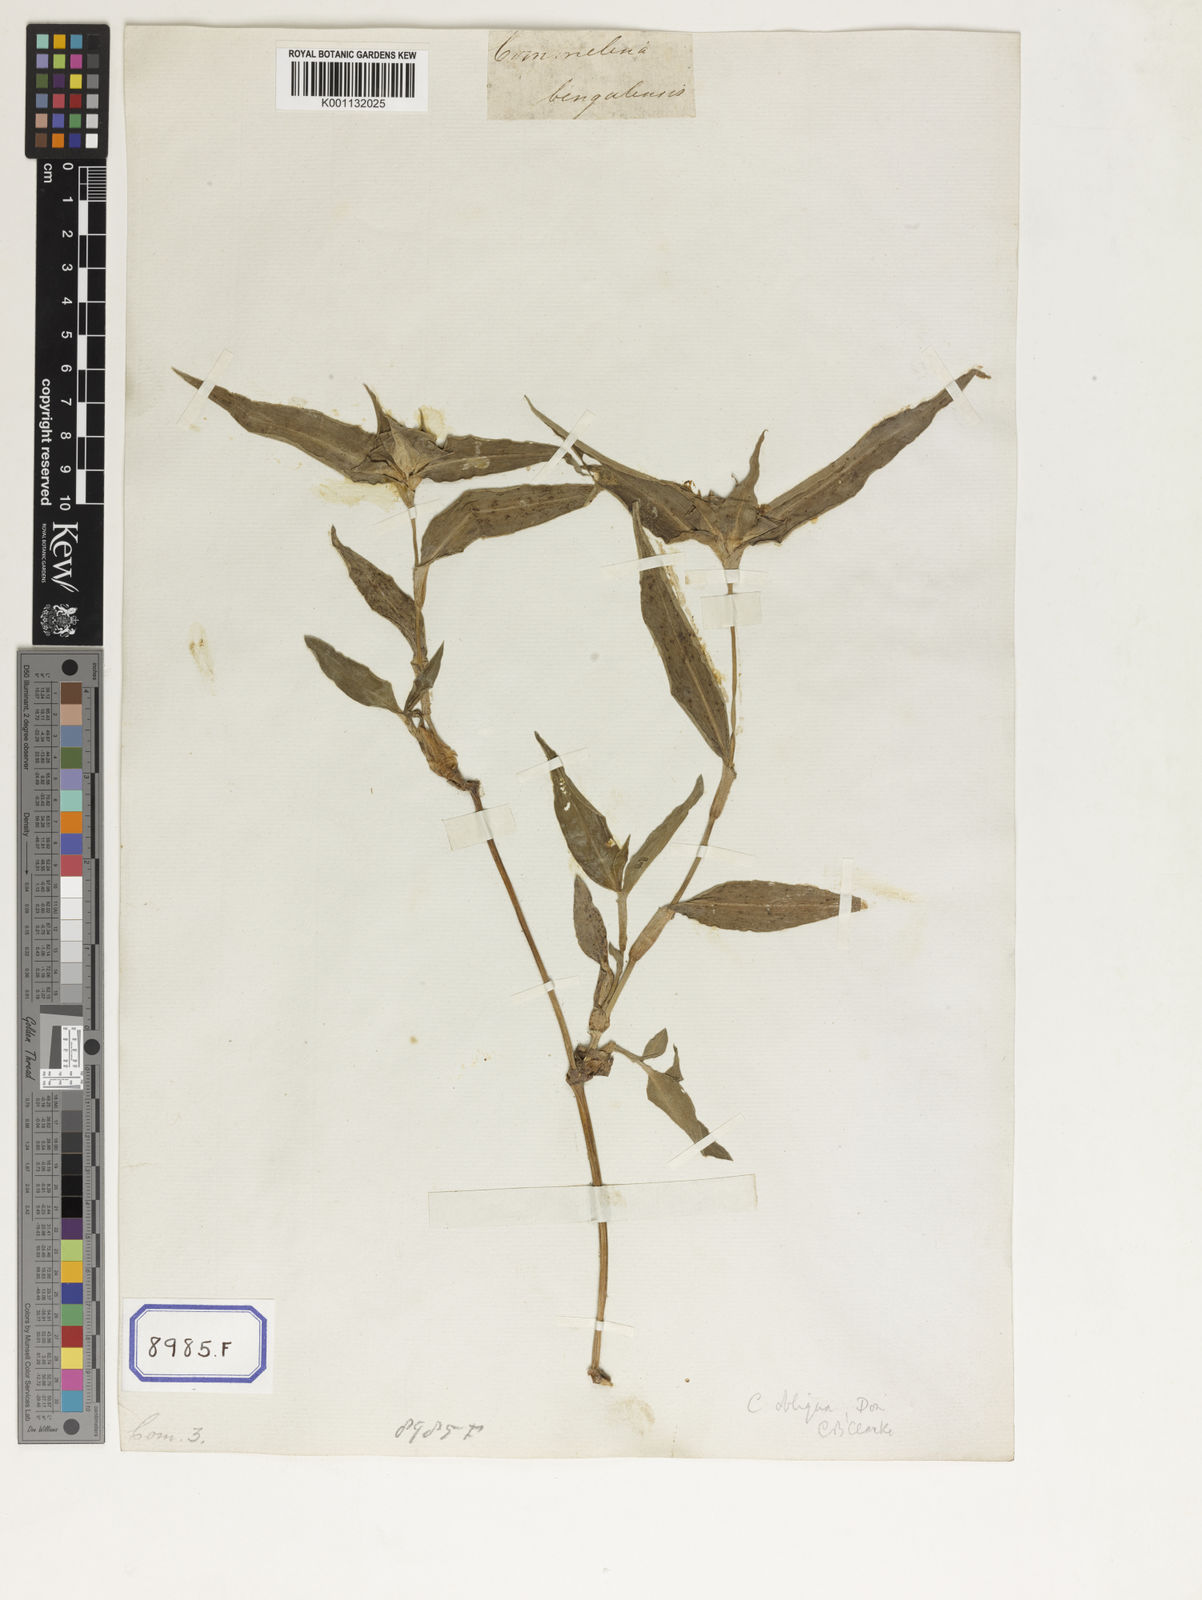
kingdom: Plantae
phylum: Tracheophyta
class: Liliopsida
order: Commelinales
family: Commelinaceae
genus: Commelina
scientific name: Commelina
